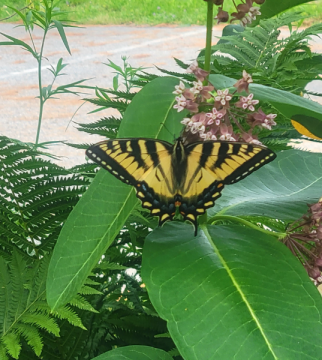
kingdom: Animalia
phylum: Arthropoda
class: Insecta
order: Lepidoptera
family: Papilionidae
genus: Pterourus
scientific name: Pterourus
